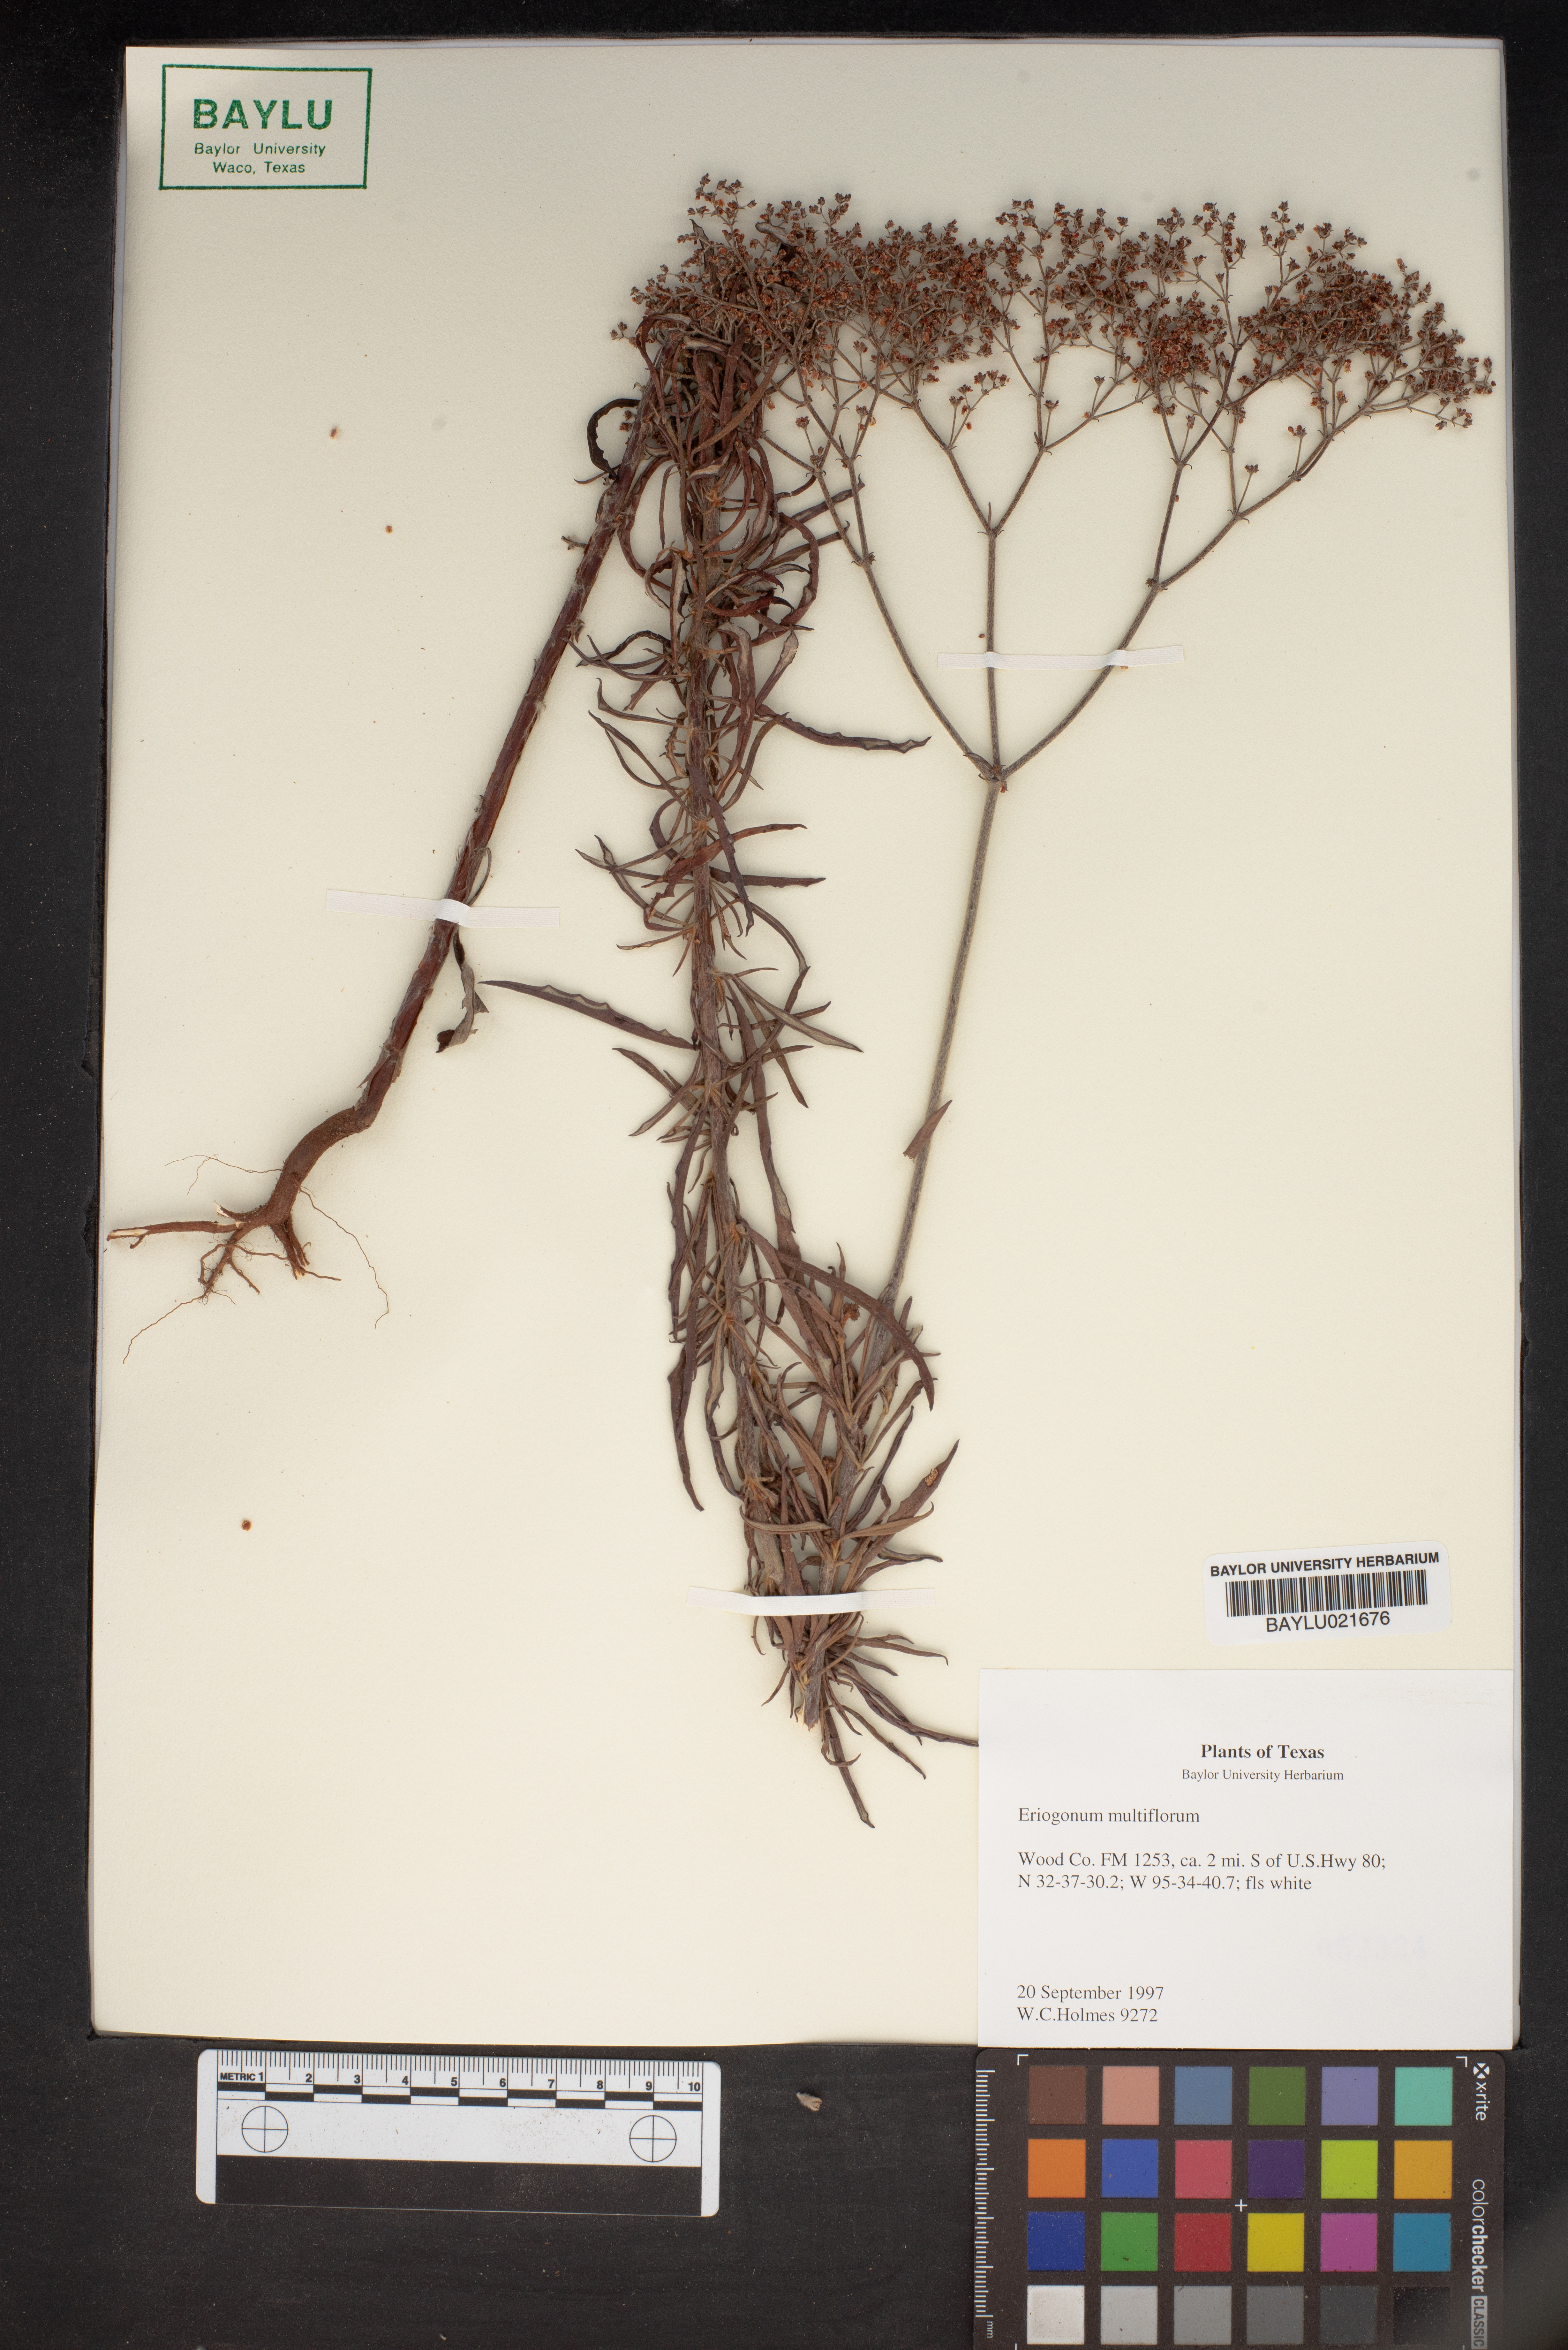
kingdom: Plantae
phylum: Tracheophyta
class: Magnoliopsida
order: Caryophyllales
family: Polygonaceae
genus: Eriogonum
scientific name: Eriogonum multiflorum
